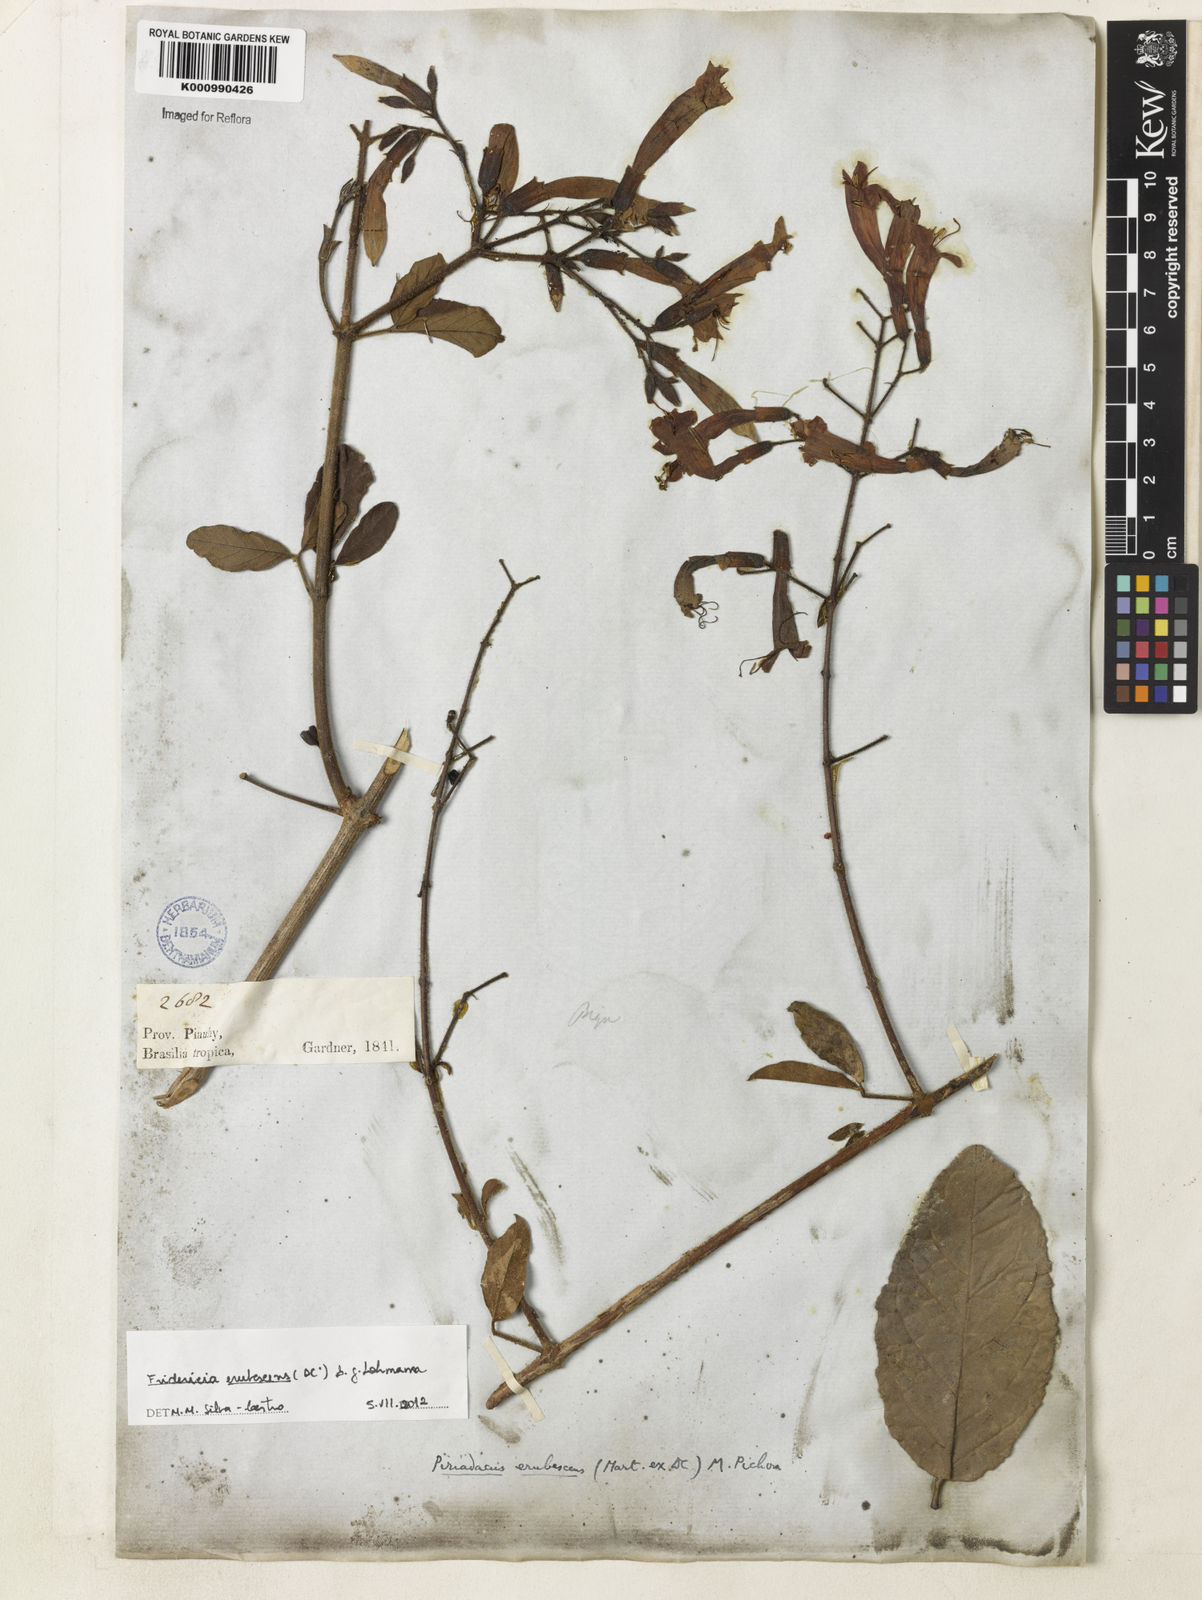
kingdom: Plantae
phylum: Tracheophyta
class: Magnoliopsida
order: Lamiales
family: Bignoniaceae
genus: Fridericia
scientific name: Fridericia erubescens
